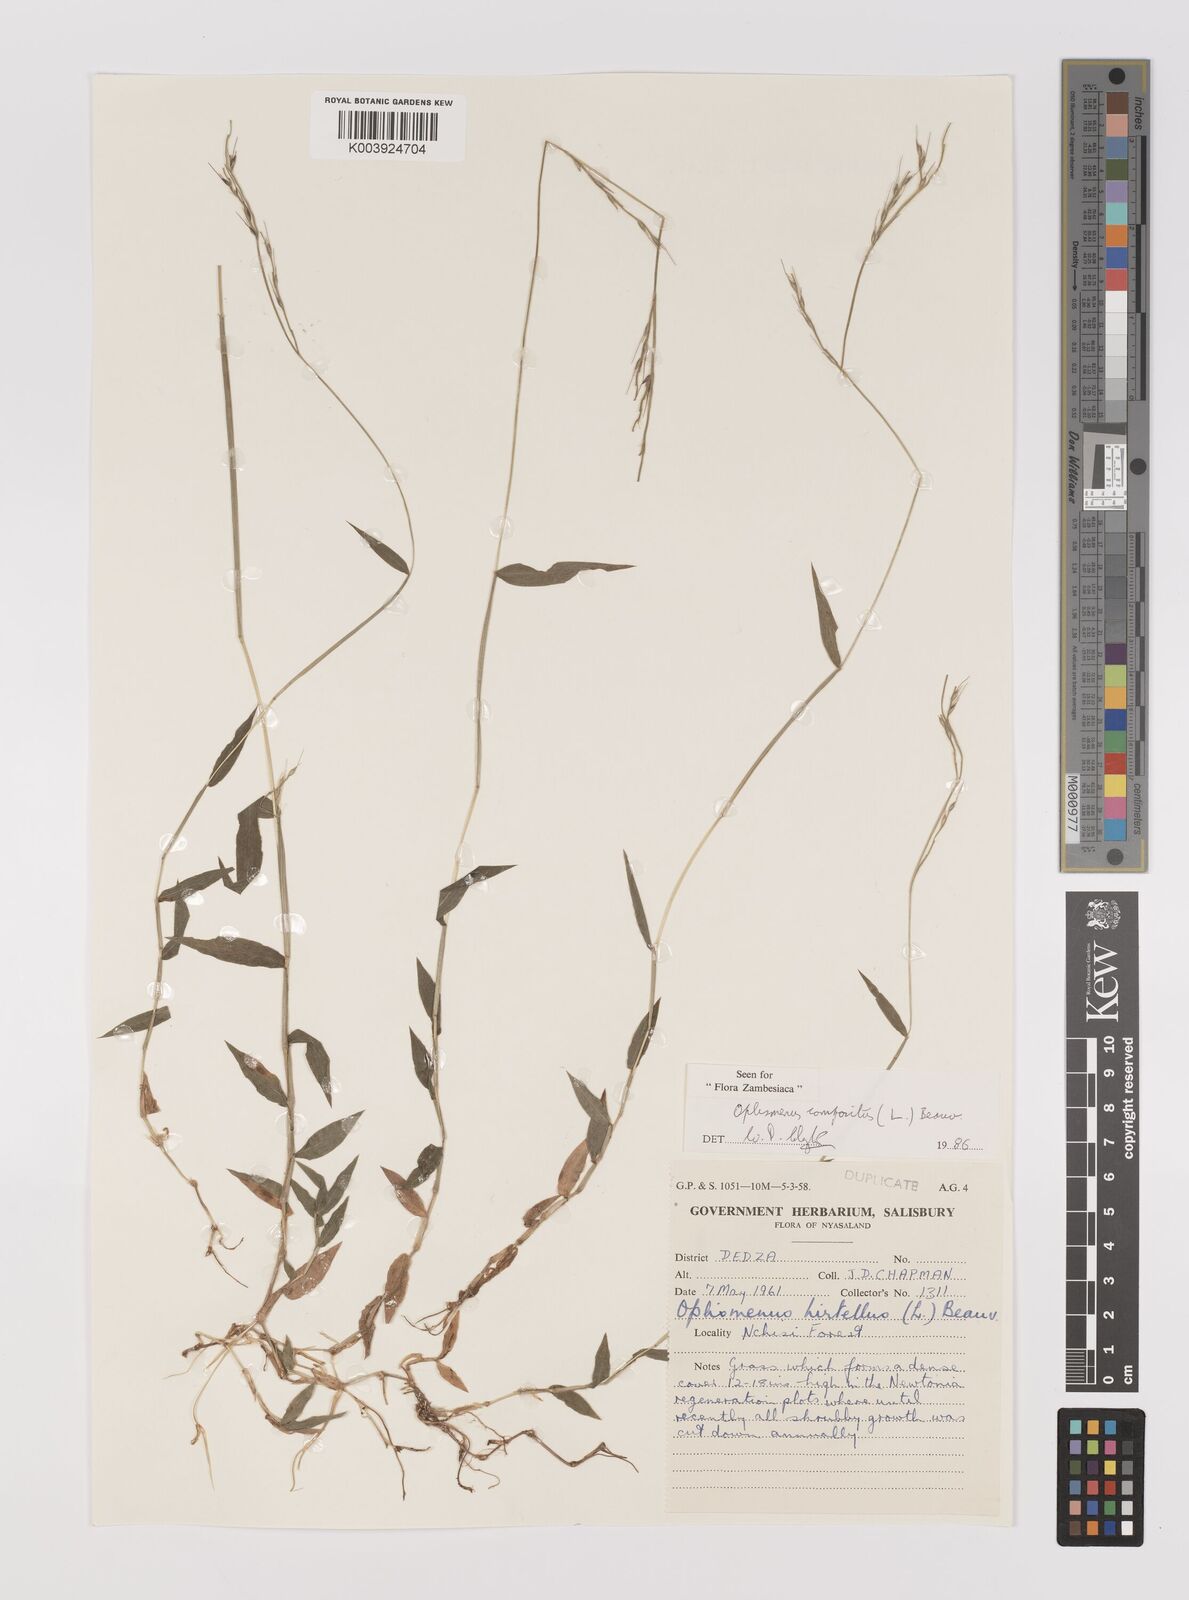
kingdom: Plantae
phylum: Tracheophyta
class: Liliopsida
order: Poales
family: Poaceae
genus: Oplismenus
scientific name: Oplismenus compositus
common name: Running mountain grass
